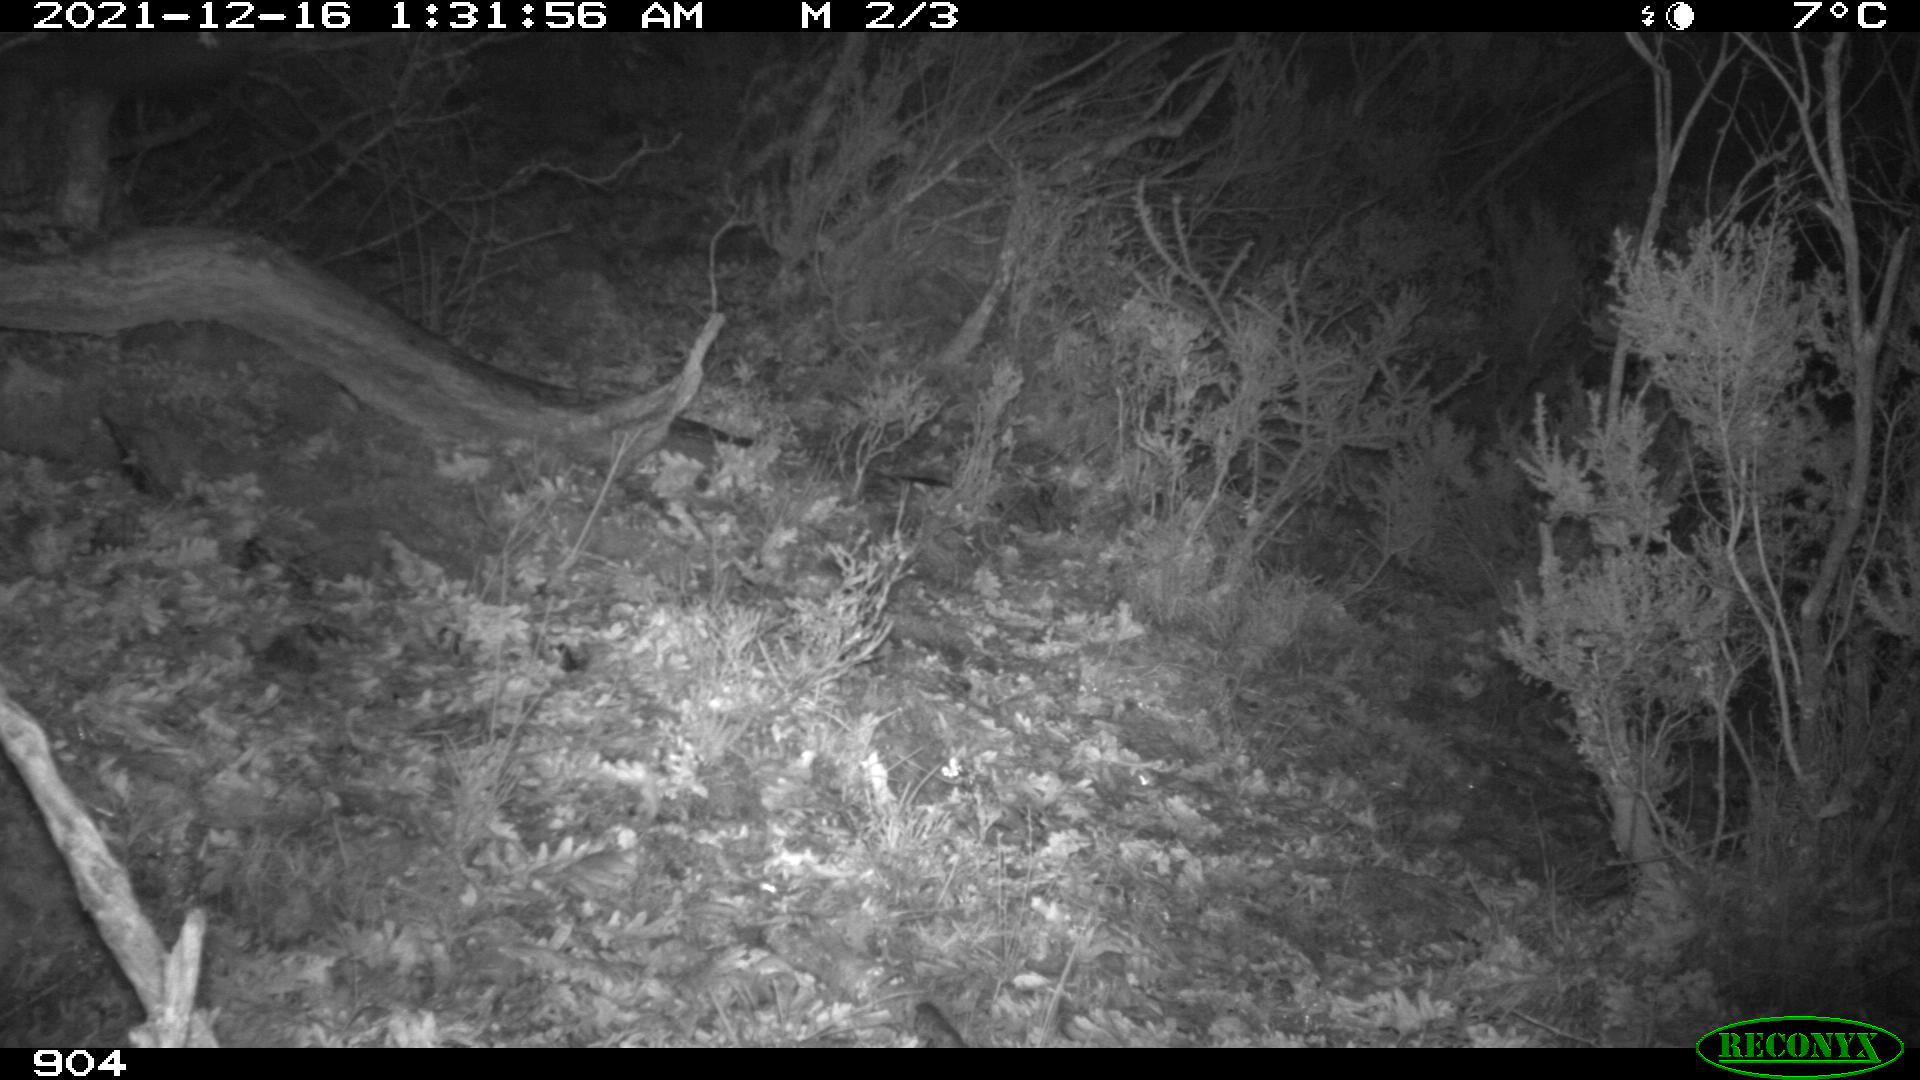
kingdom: Animalia
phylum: Chordata
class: Mammalia
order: Carnivora
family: Canidae
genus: Vulpes
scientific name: Vulpes vulpes
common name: Red fox
